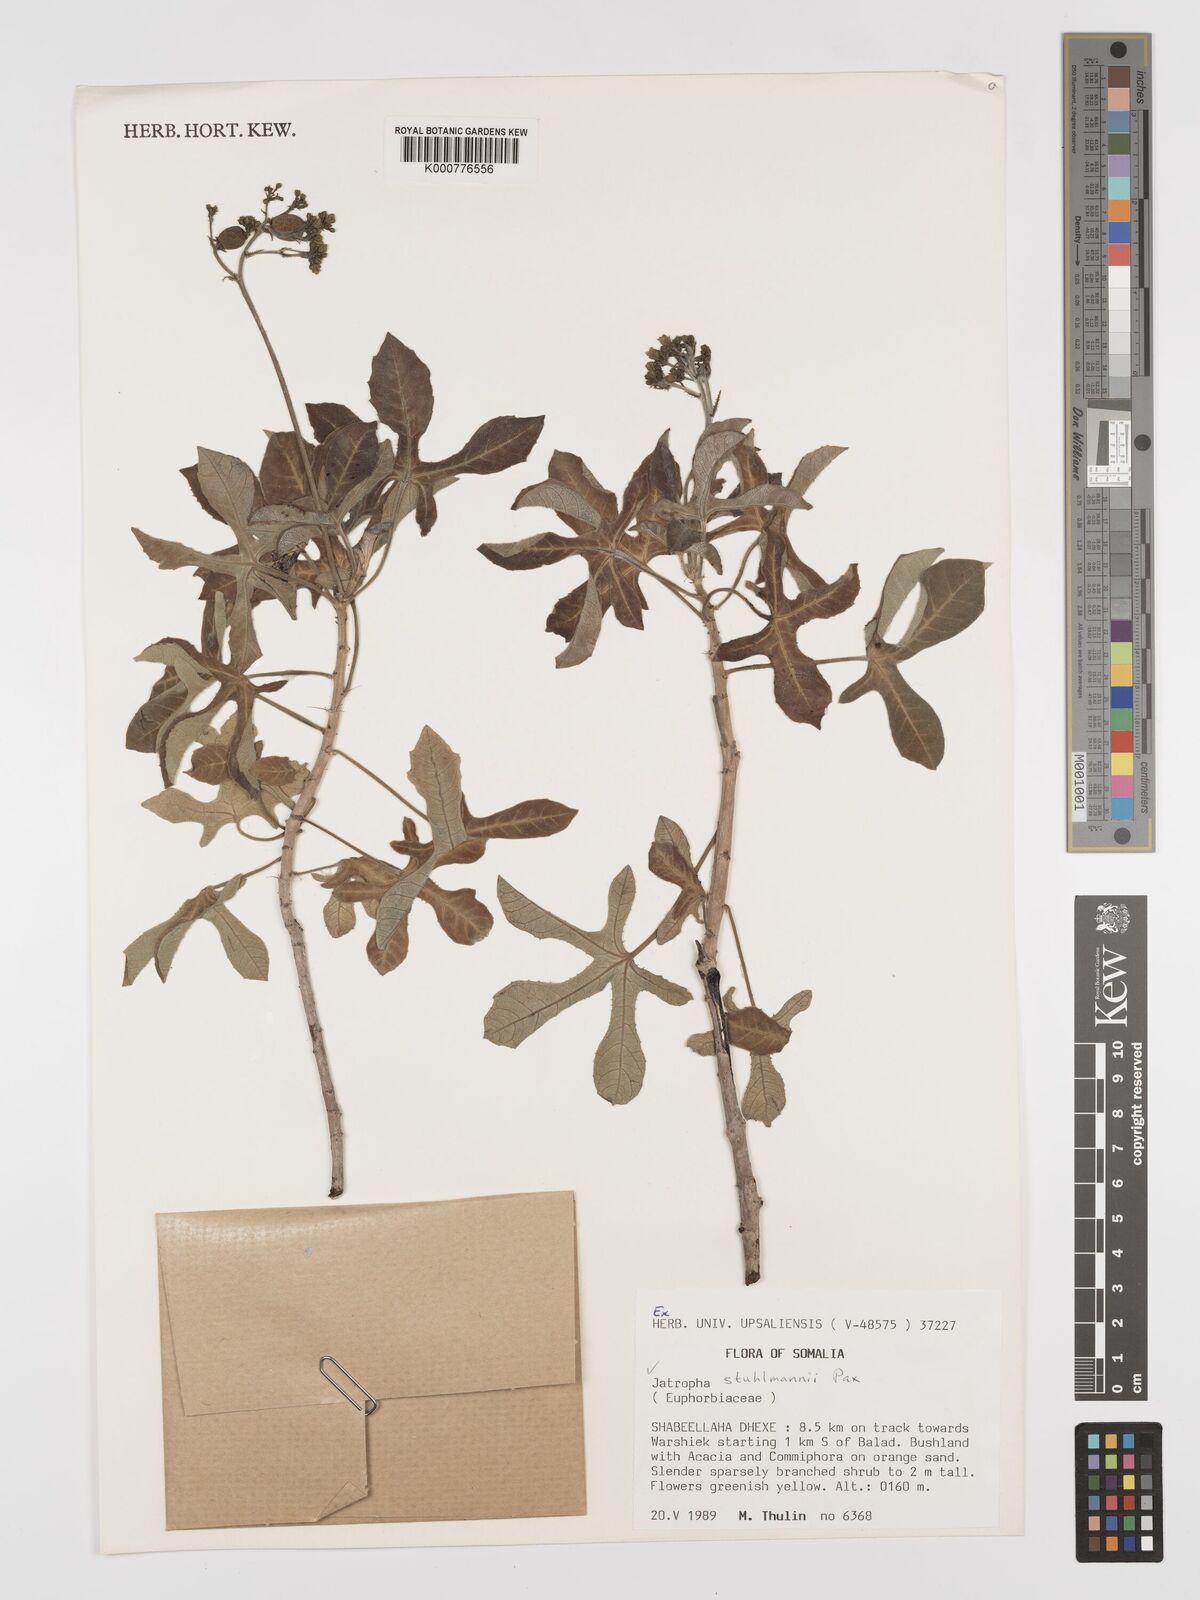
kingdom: Plantae
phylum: Tracheophyta
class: Magnoliopsida
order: Malpighiales
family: Euphorbiaceae
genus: Jatropha
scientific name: Jatropha stuhlmannii
